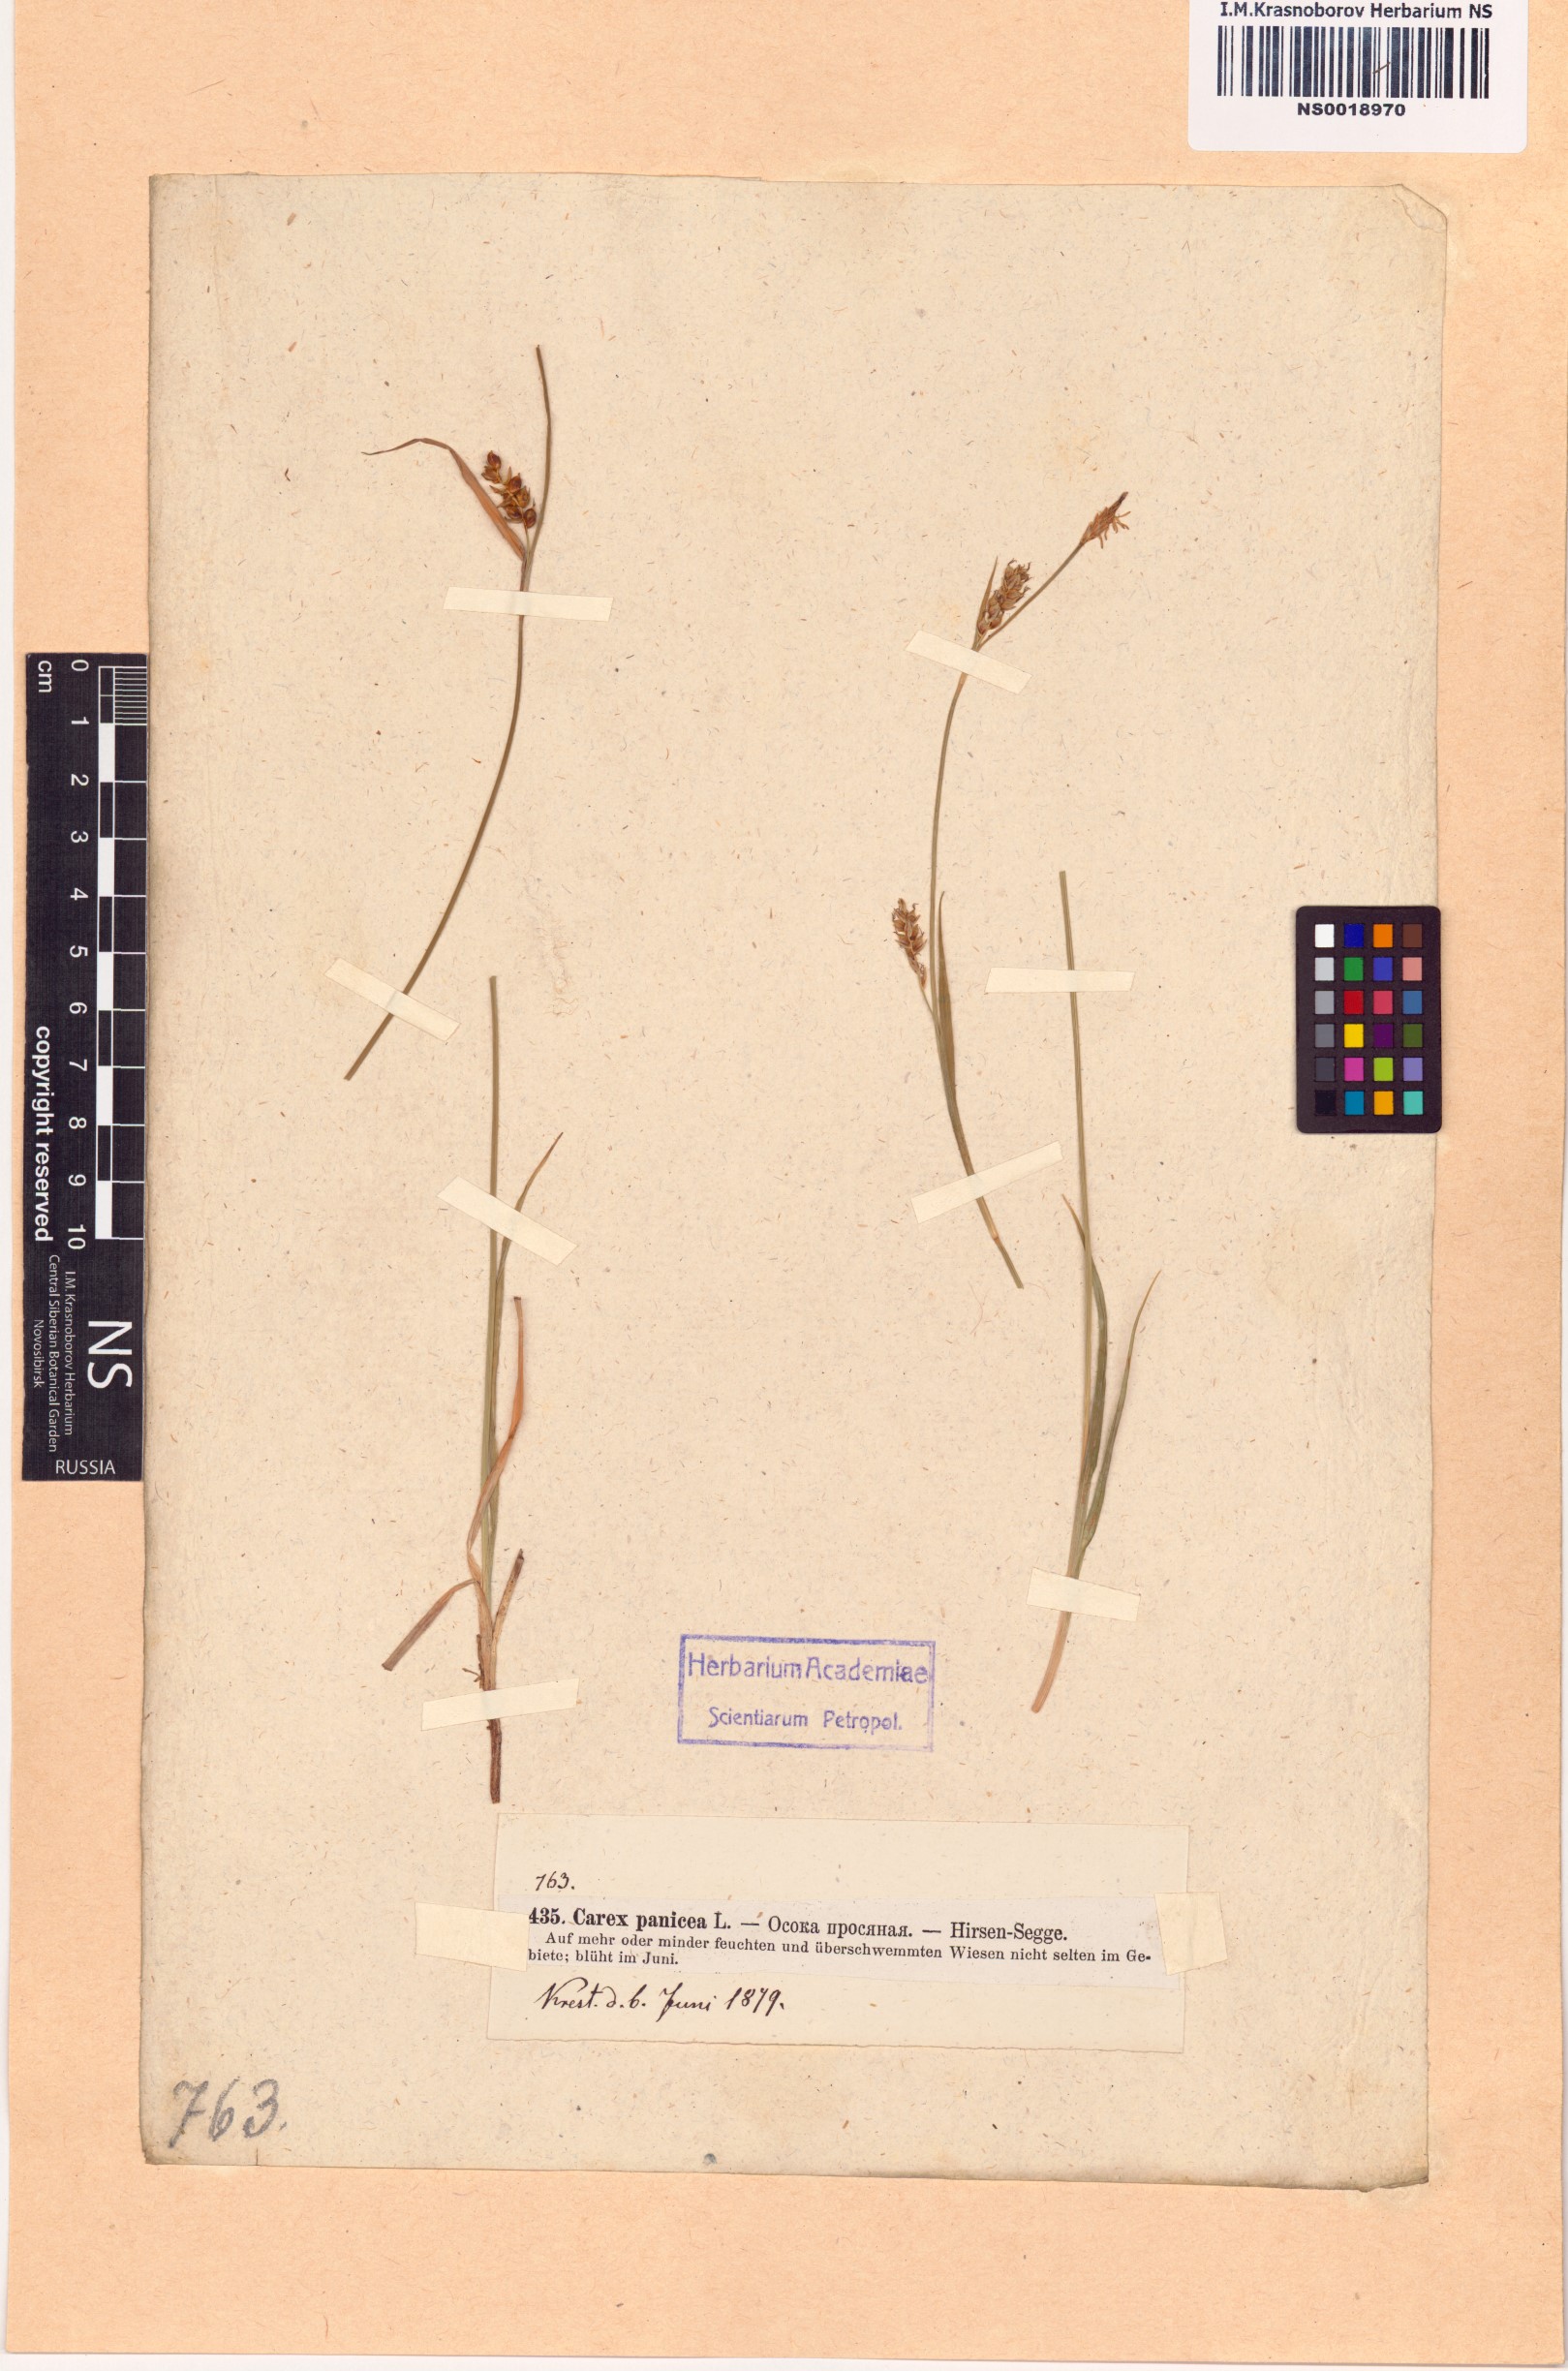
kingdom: Plantae
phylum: Tracheophyta
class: Liliopsida
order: Poales
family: Cyperaceae
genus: Carex
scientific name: Carex panicea
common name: Carnation sedge
